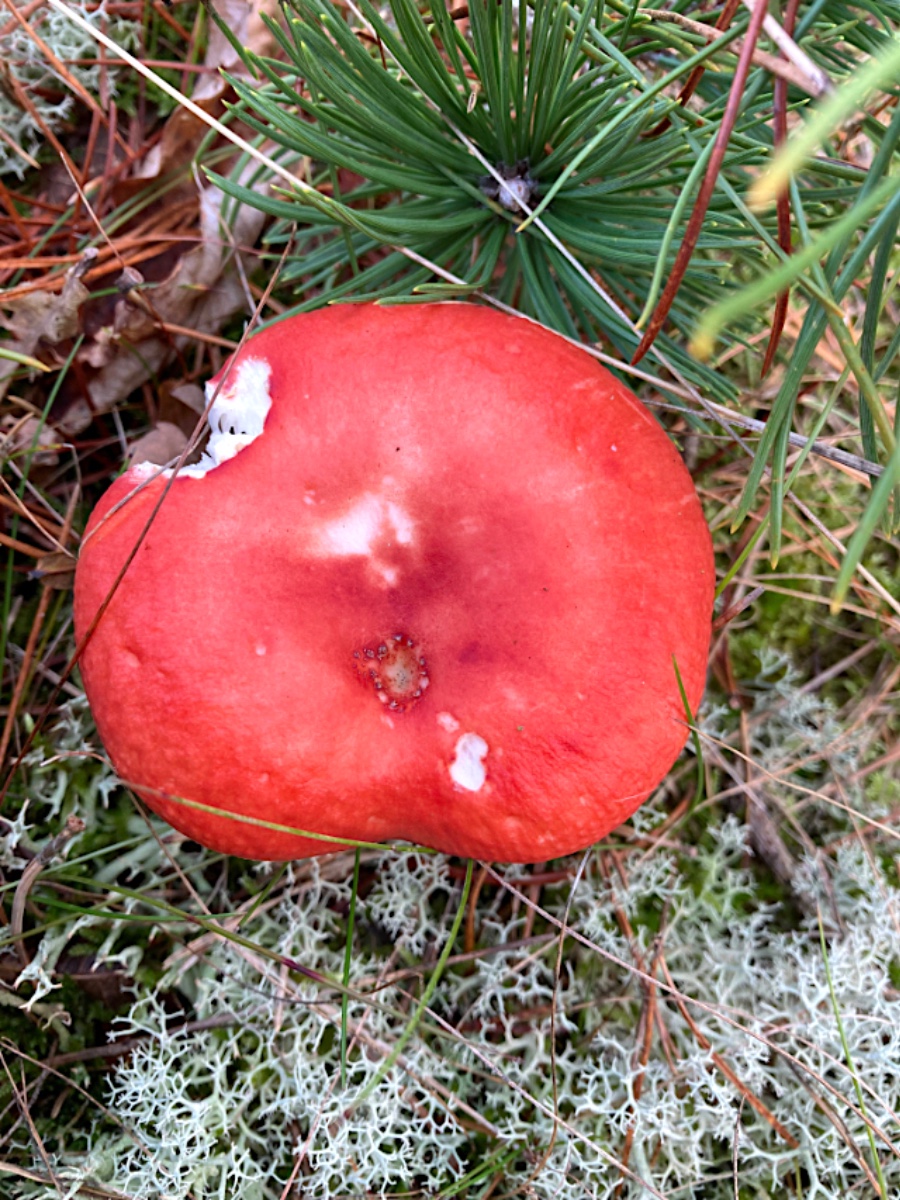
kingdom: Fungi
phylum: Basidiomycota
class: Agaricomycetes
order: Russulales
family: Russulaceae
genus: Russula
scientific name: Russula emetica
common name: stor gift-skørhat
